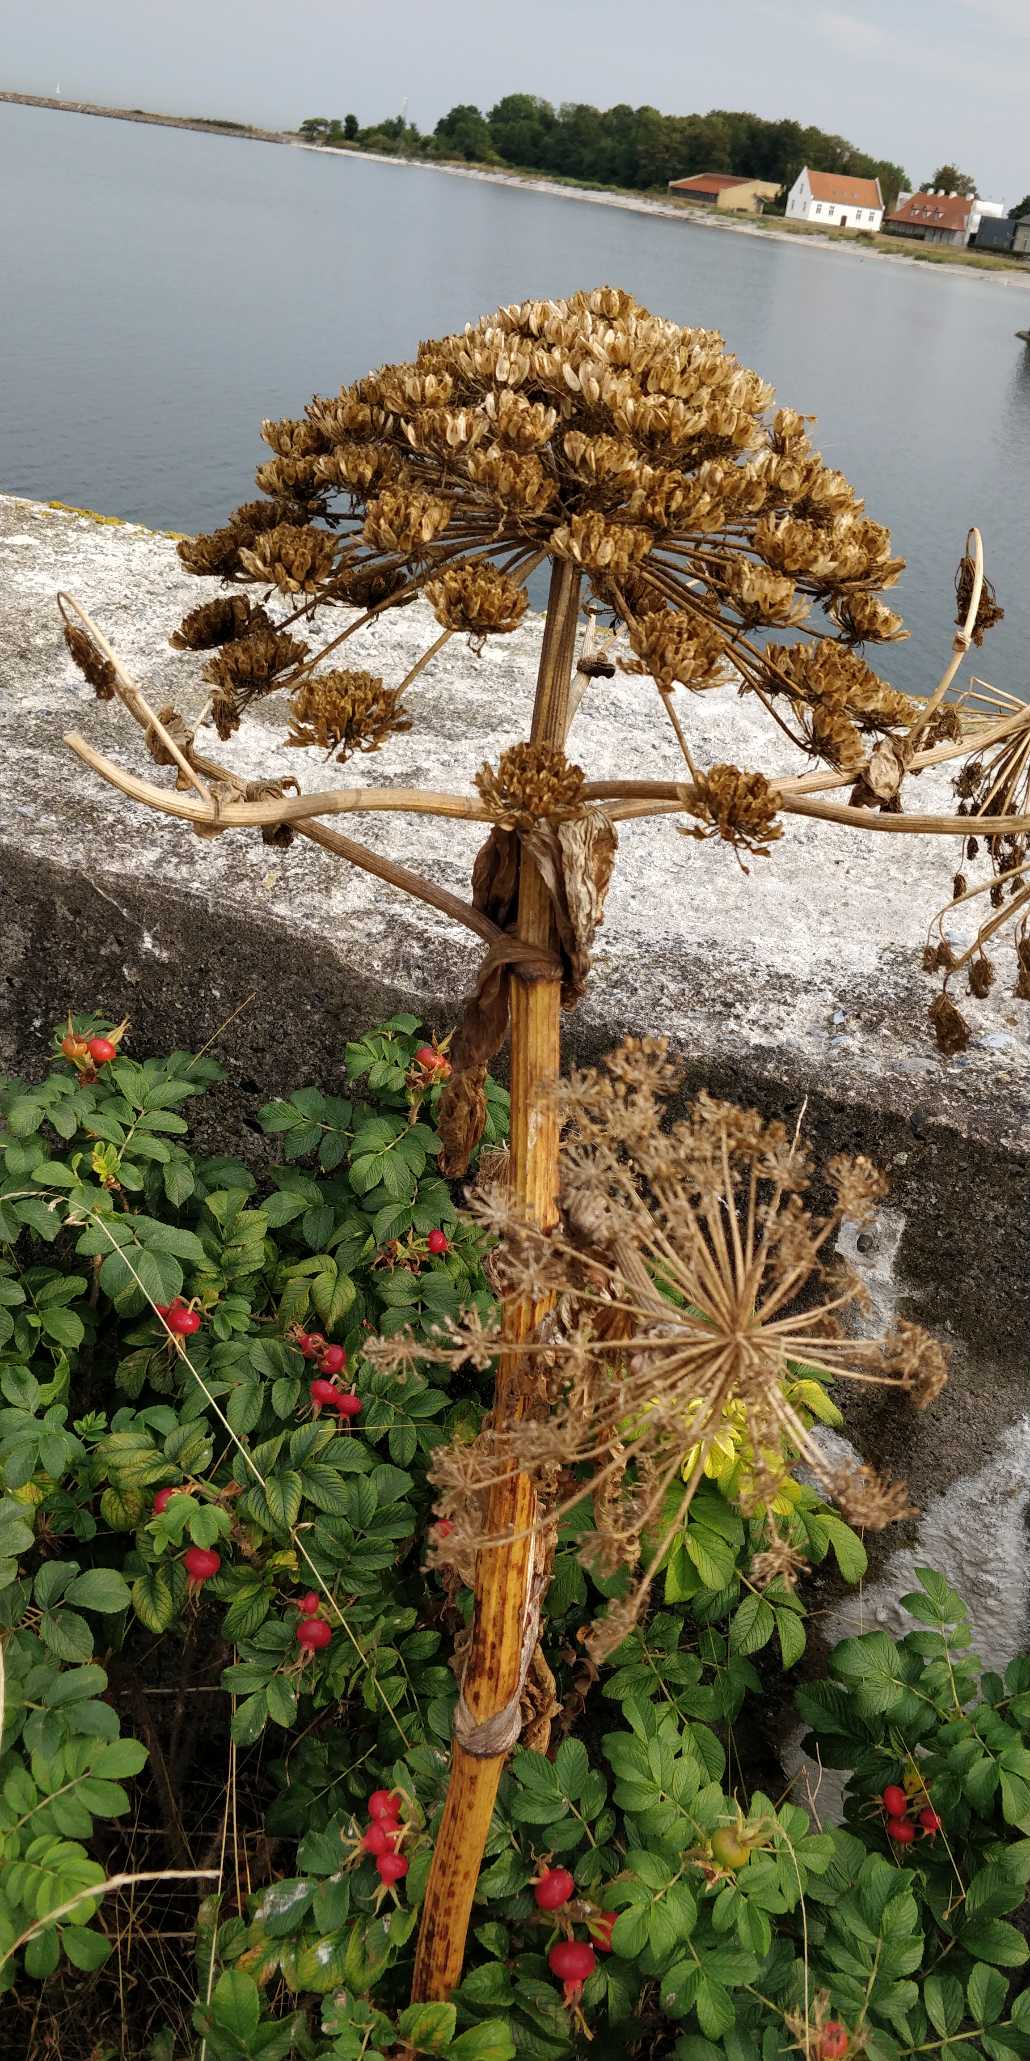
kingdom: Plantae
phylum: Tracheophyta
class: Magnoliopsida
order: Apiales
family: Apiaceae
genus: Heracleum
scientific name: Heracleum mantegazzianum
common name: Kæmpe-bjørneklo
